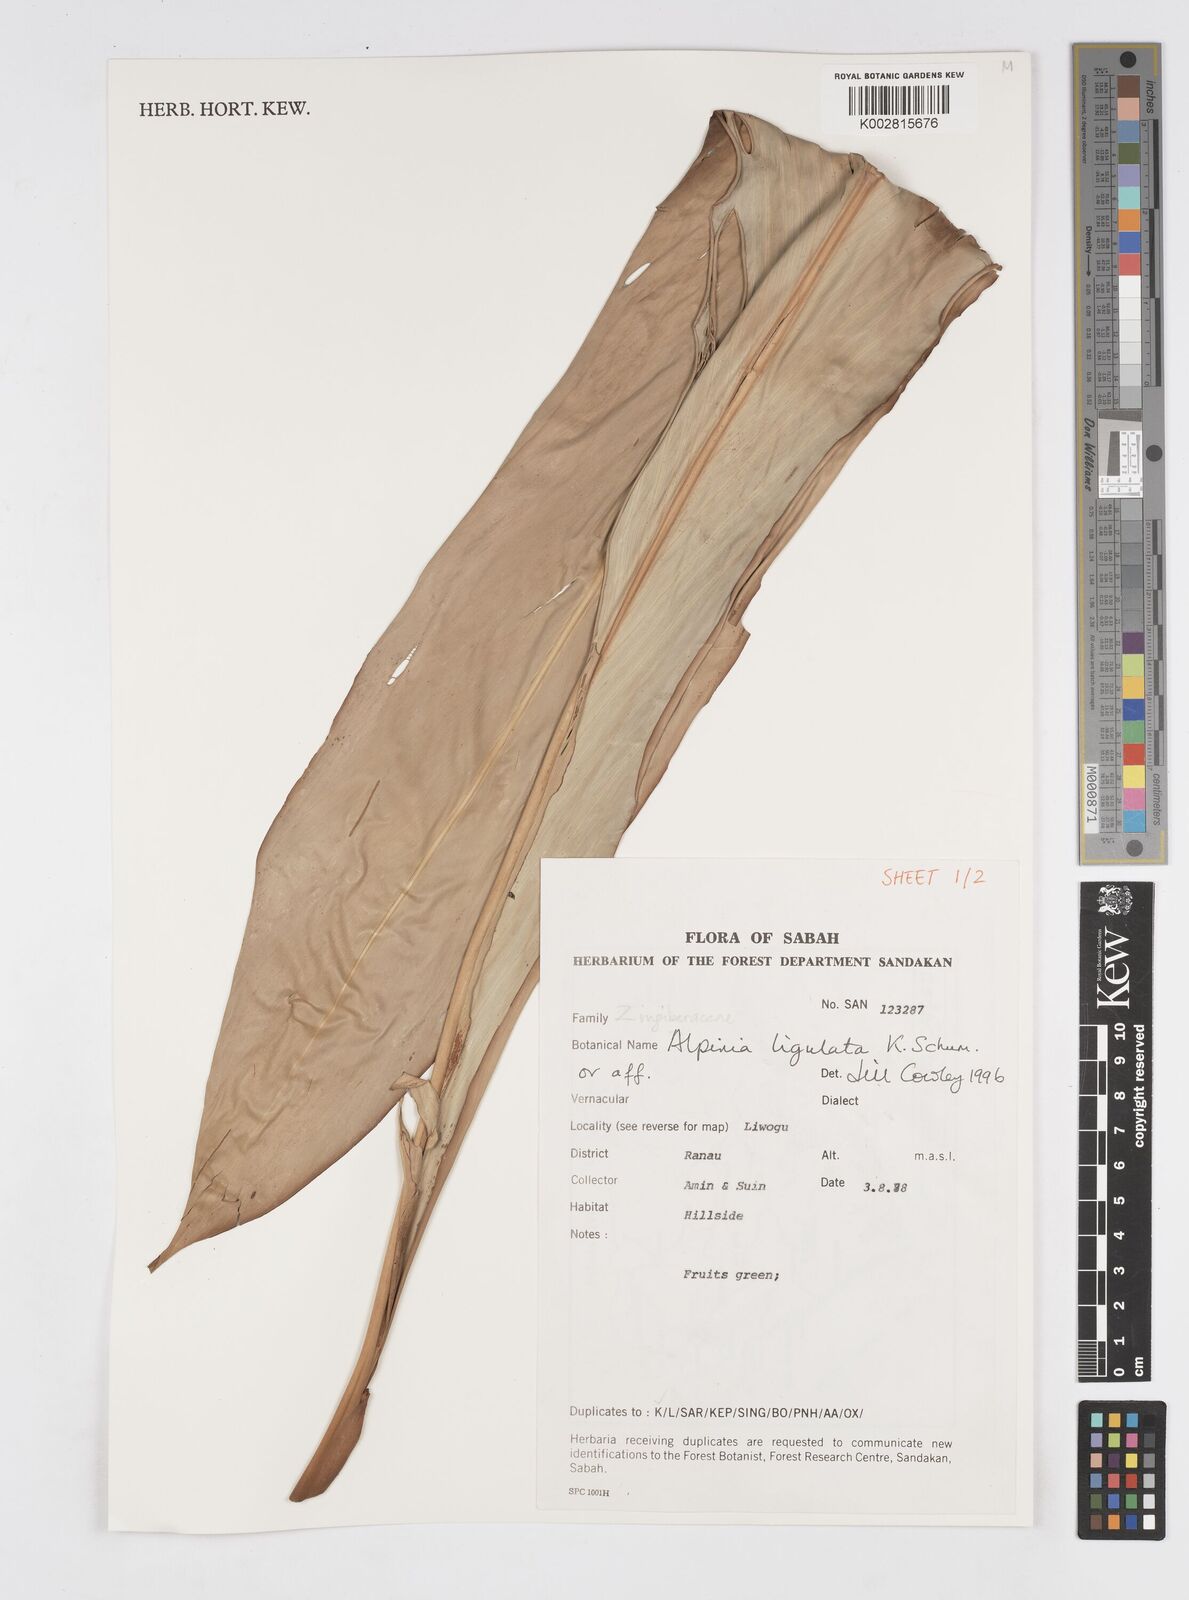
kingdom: Plantae
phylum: Tracheophyta
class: Liliopsida
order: Zingiberales
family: Zingiberaceae
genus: Alpinia
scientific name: Alpinia ligulata
